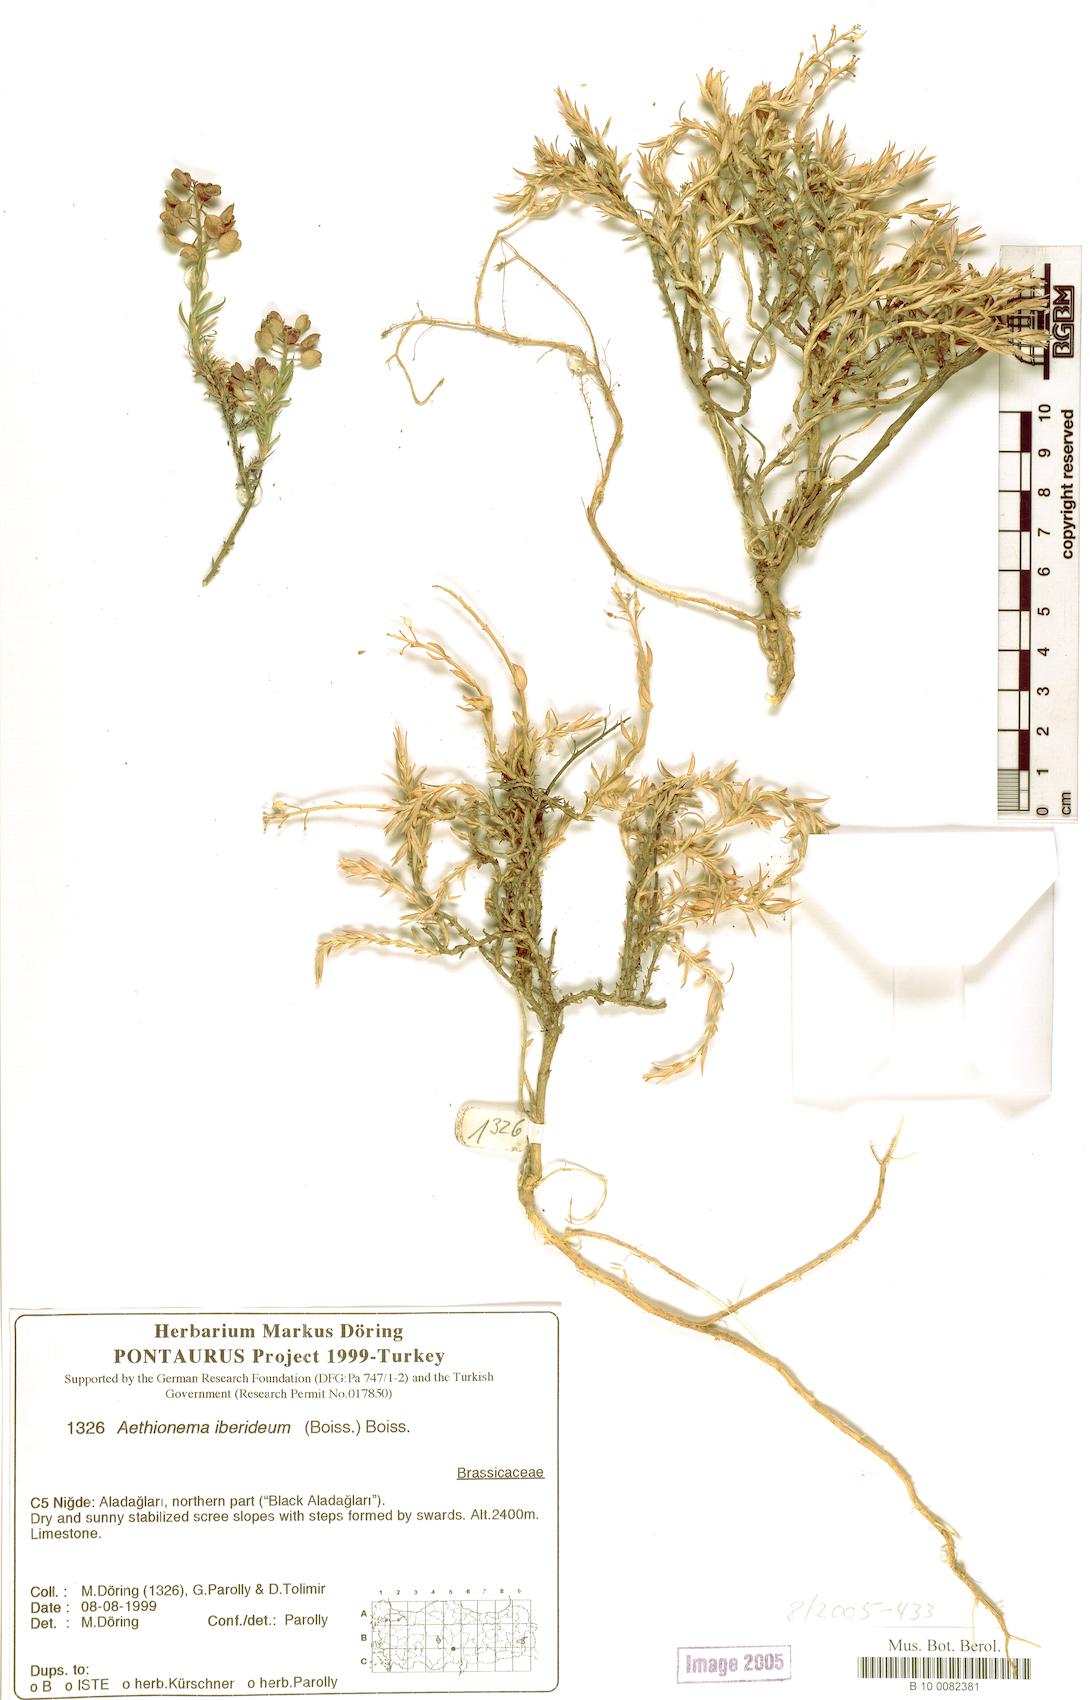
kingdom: Plantae
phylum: Tracheophyta
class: Magnoliopsida
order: Brassicales
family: Brassicaceae
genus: Noccaea
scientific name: Noccaea iberidea
